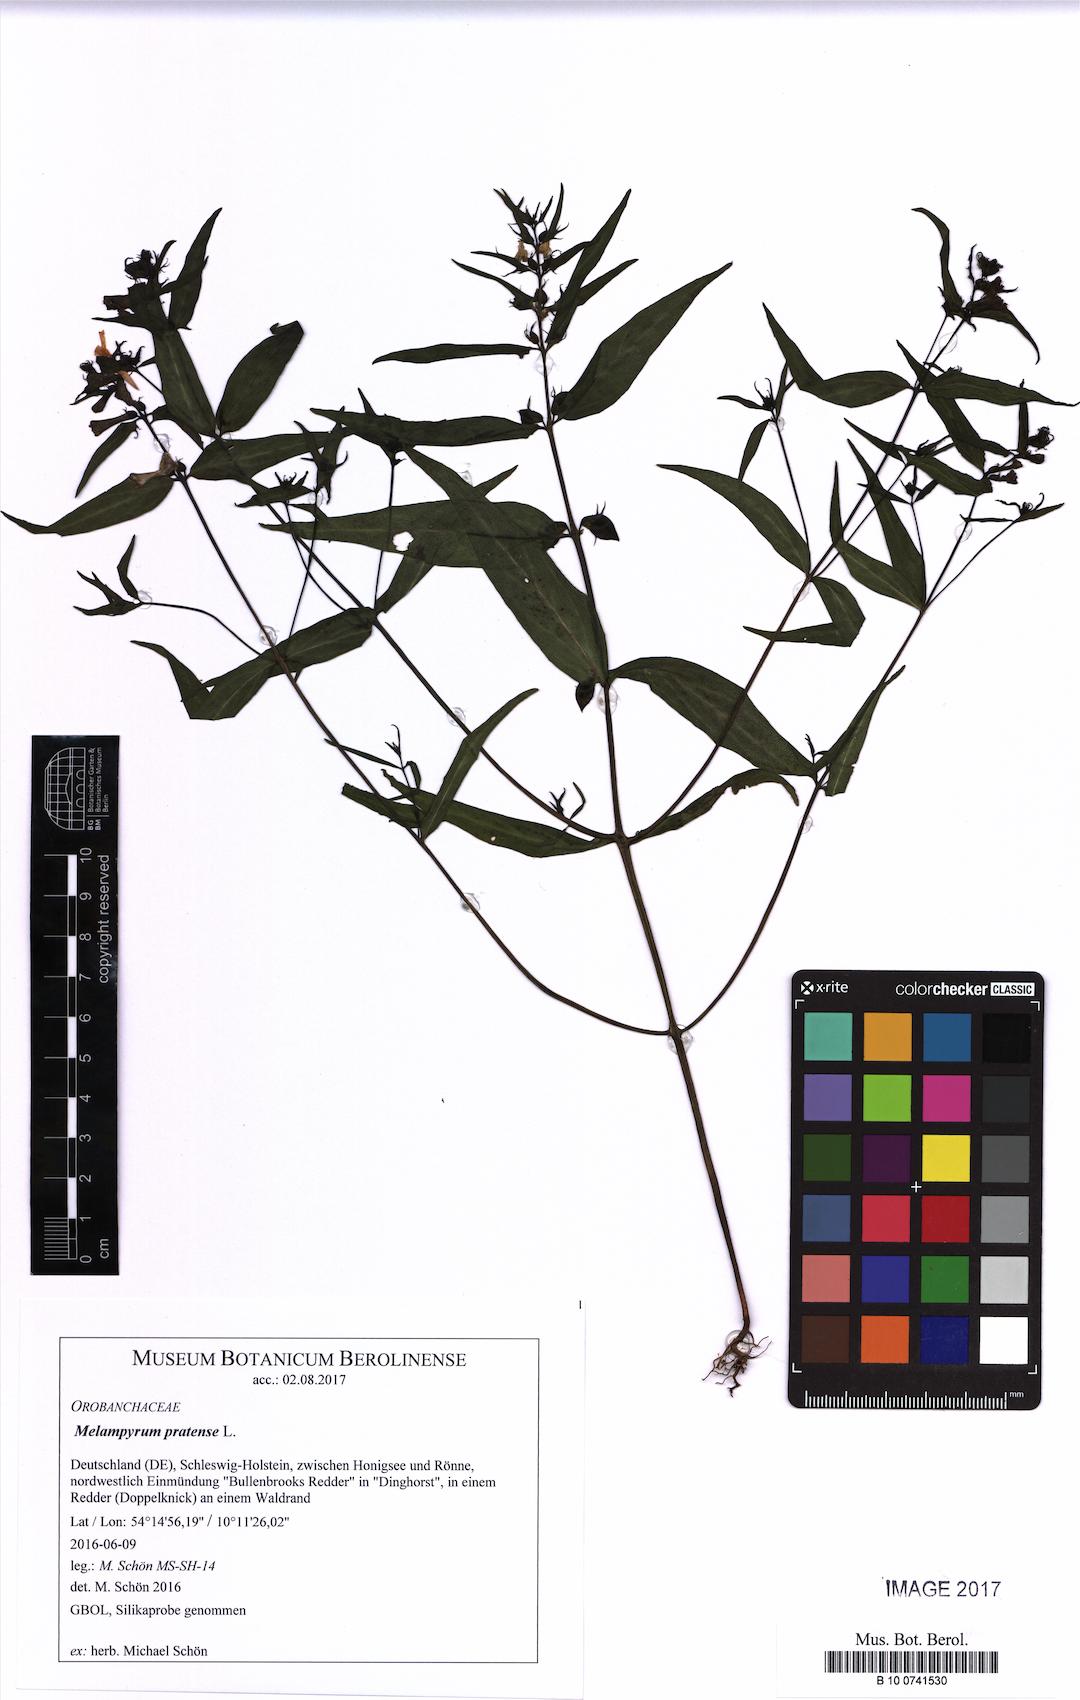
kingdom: Plantae
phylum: Tracheophyta
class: Magnoliopsida
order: Lamiales
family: Orobanchaceae
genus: Melampyrum
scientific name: Melampyrum pratense
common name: Common cow-wheat
